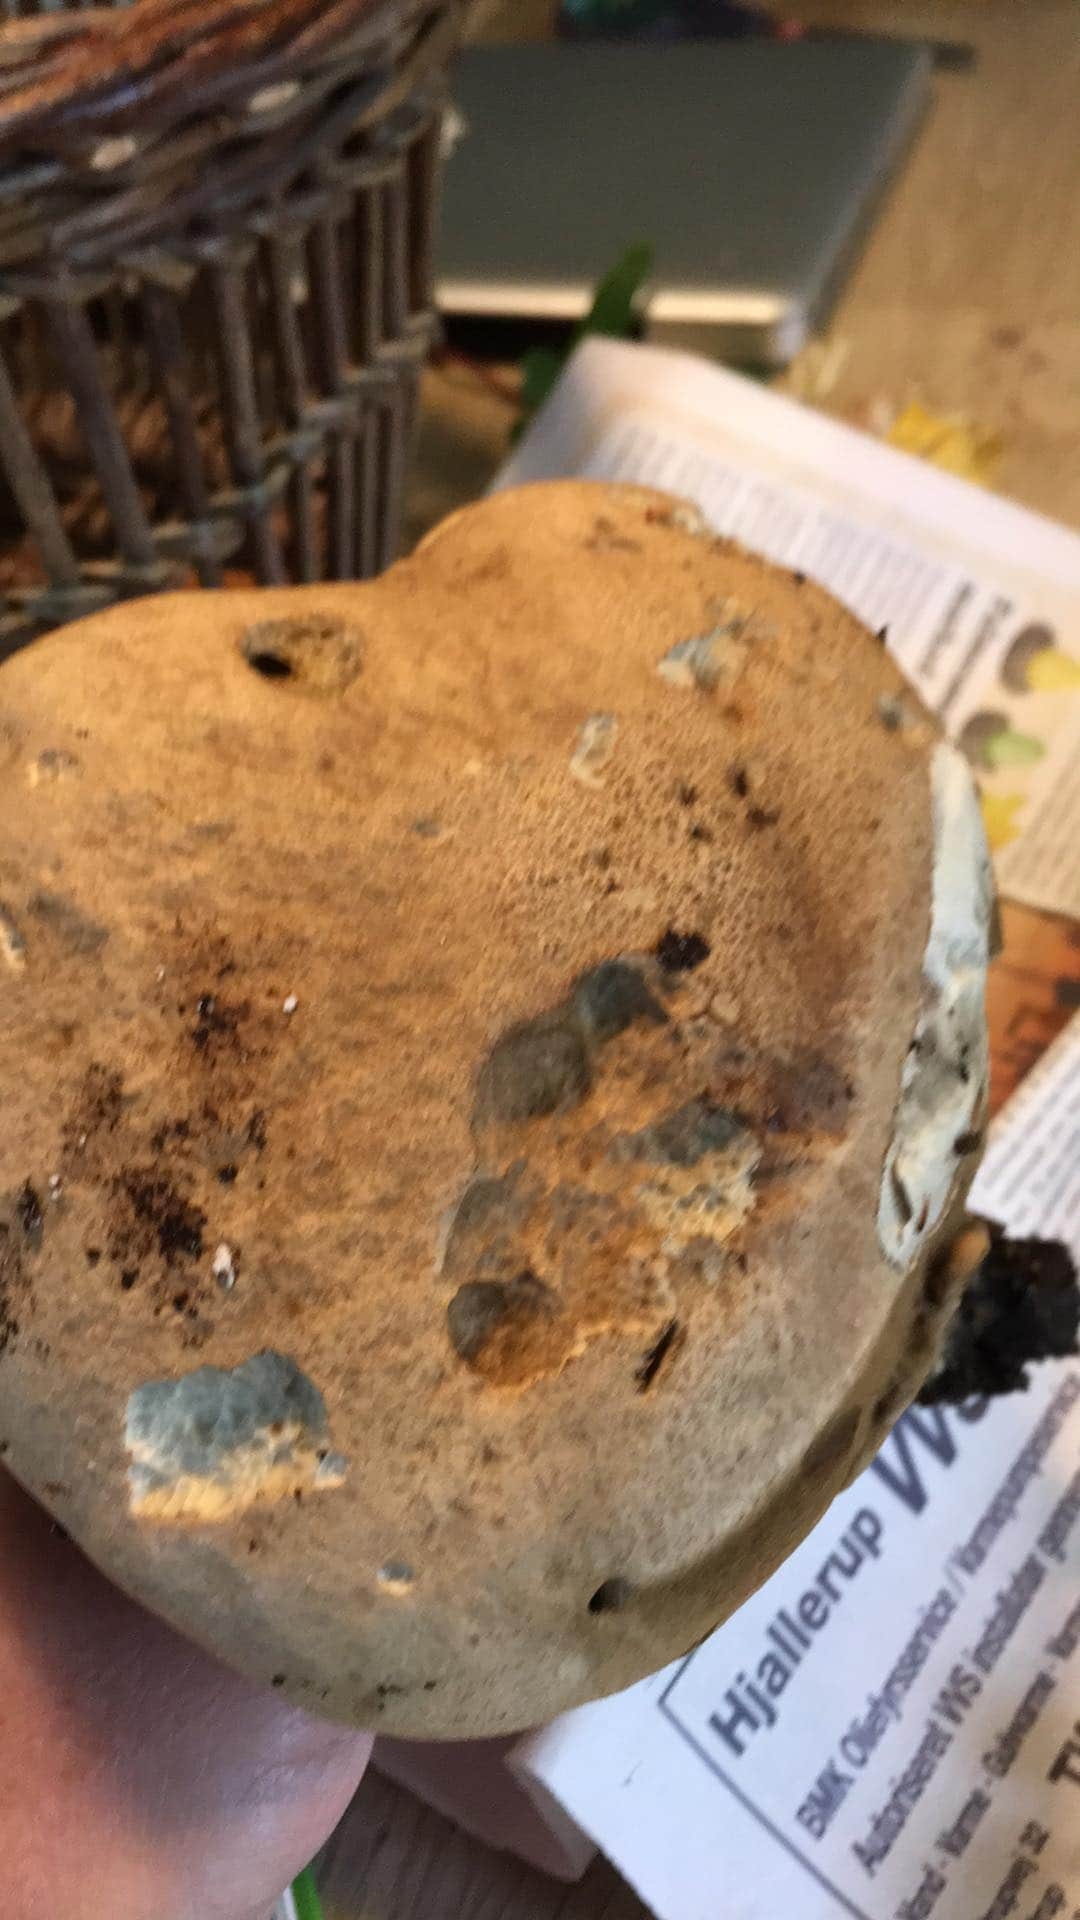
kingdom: Fungi
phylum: Basidiomycota
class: Agaricomycetes
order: Boletales
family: Boletaceae
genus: Caloboletus
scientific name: Caloboletus calopus
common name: skønfodet rørhat
